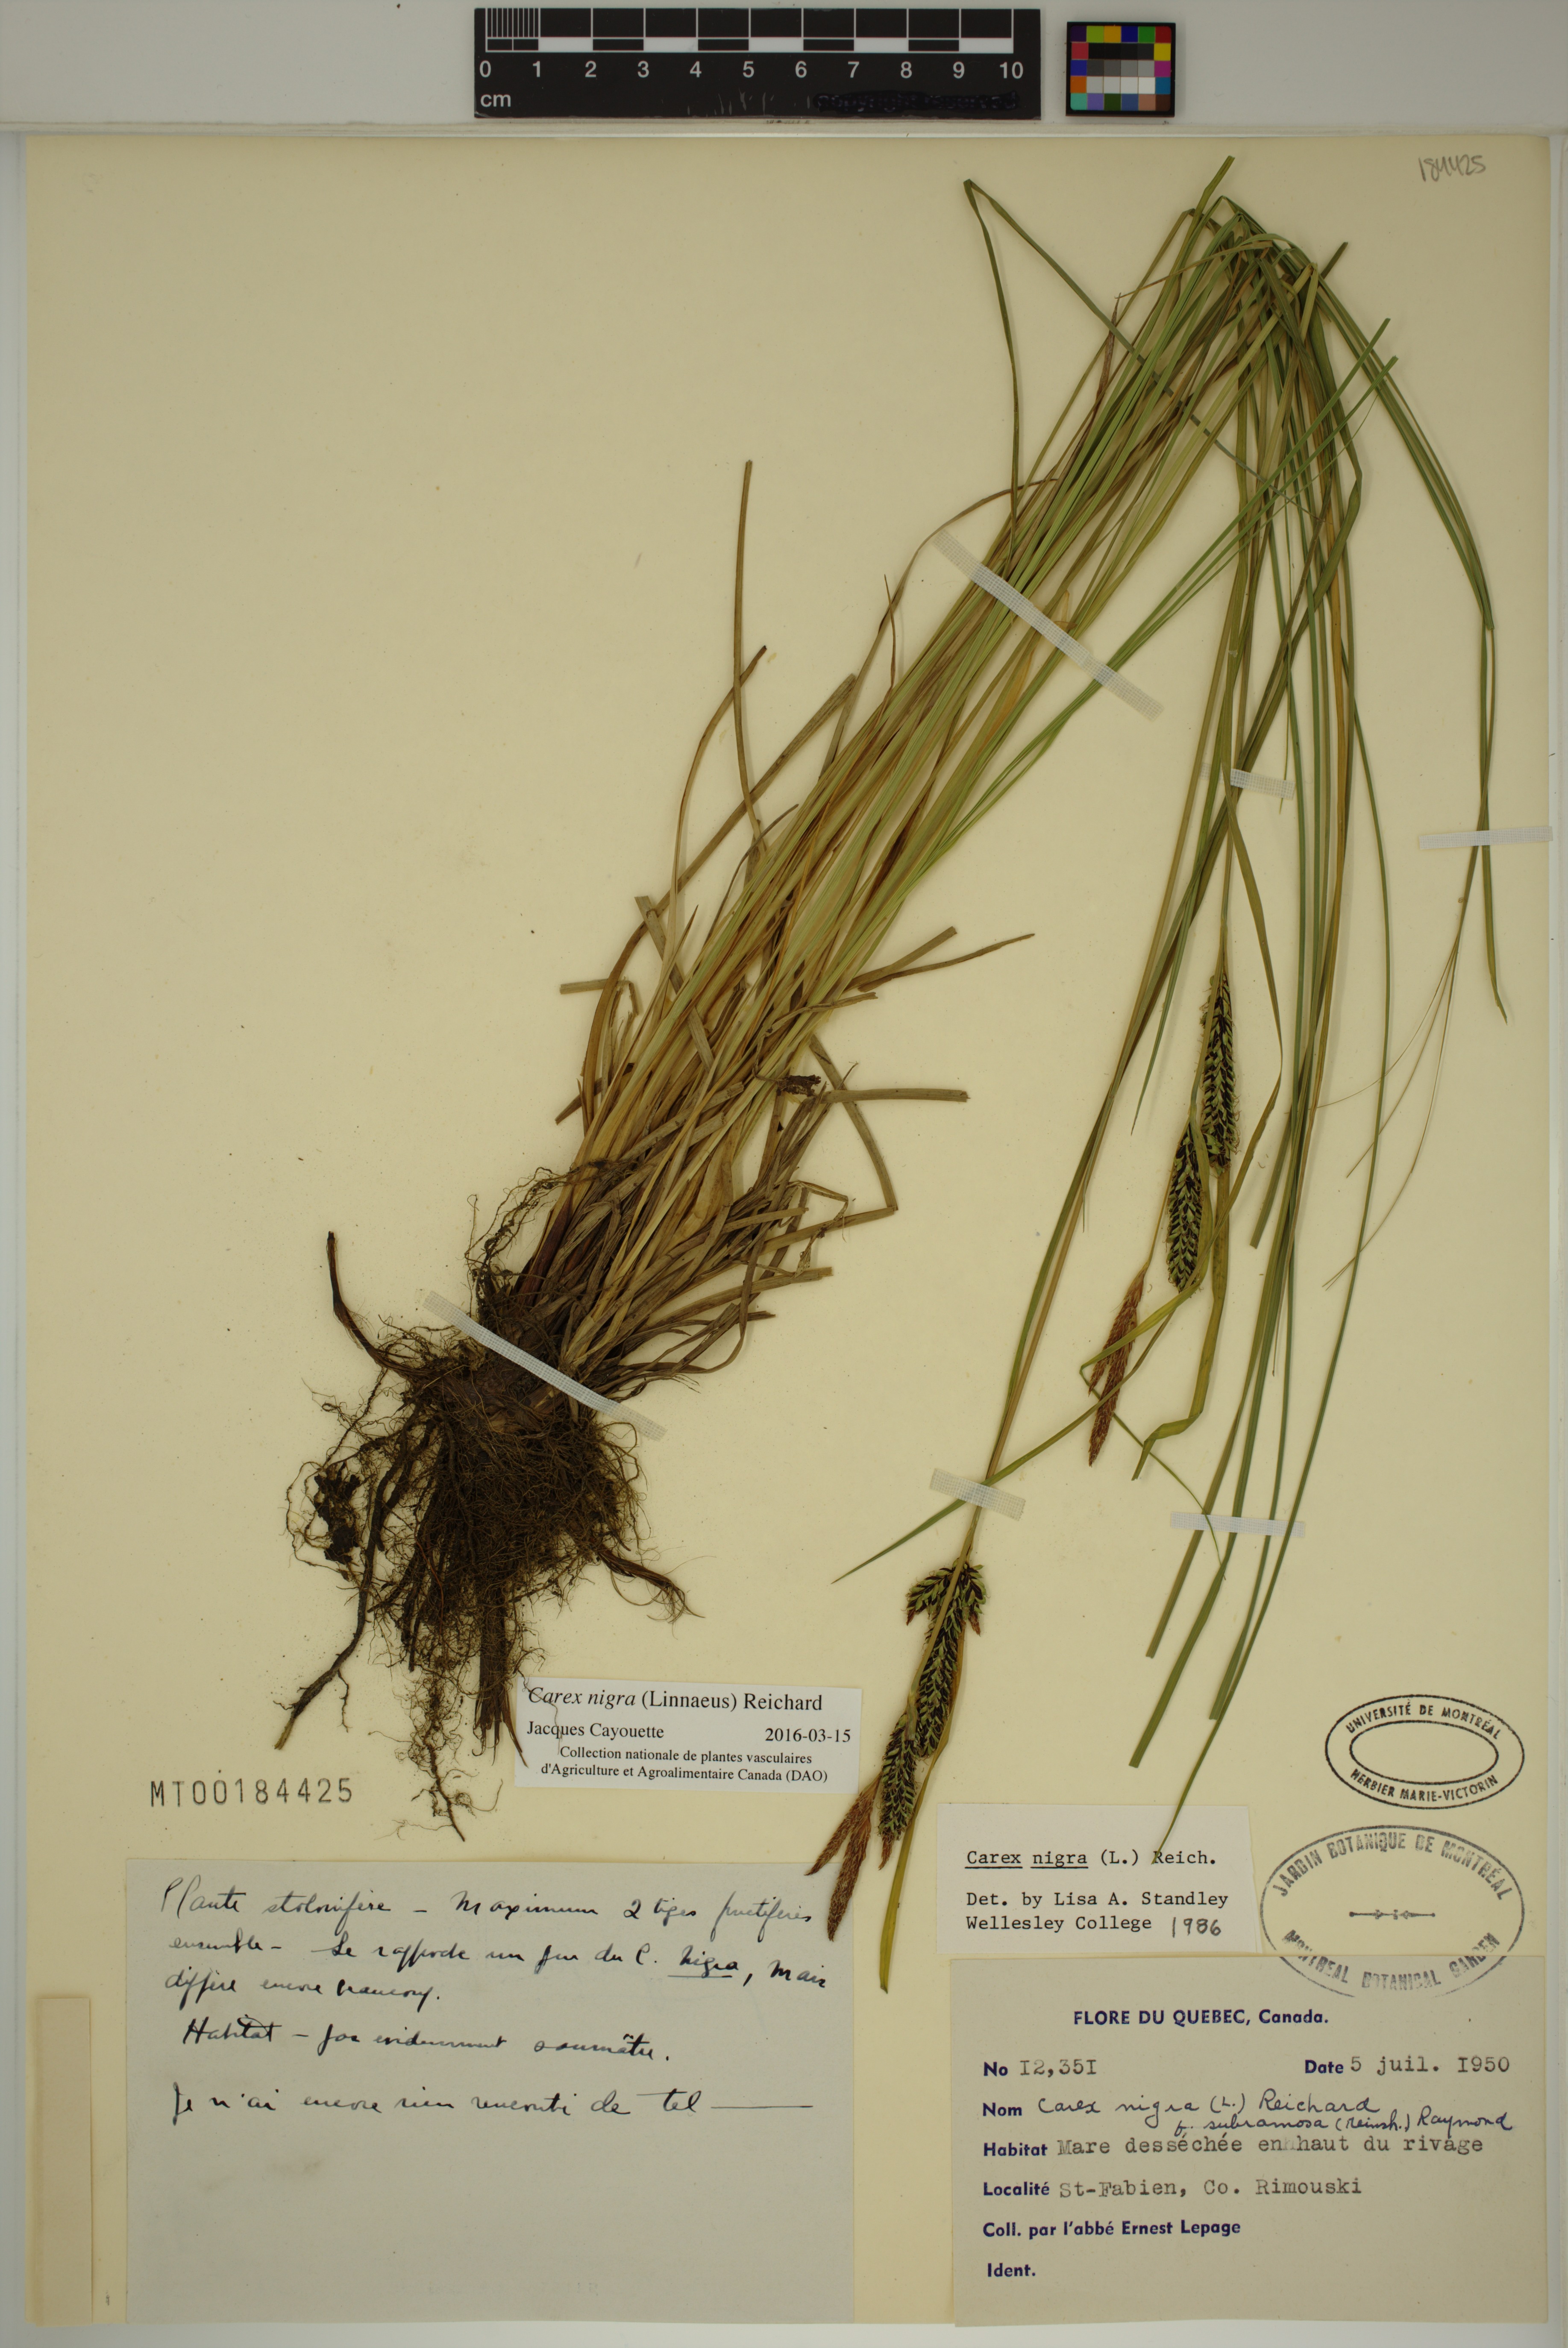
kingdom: Plantae
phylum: Tracheophyta
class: Liliopsida
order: Poales
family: Cyperaceae
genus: Carex
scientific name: Carex nigra
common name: Common sedge
